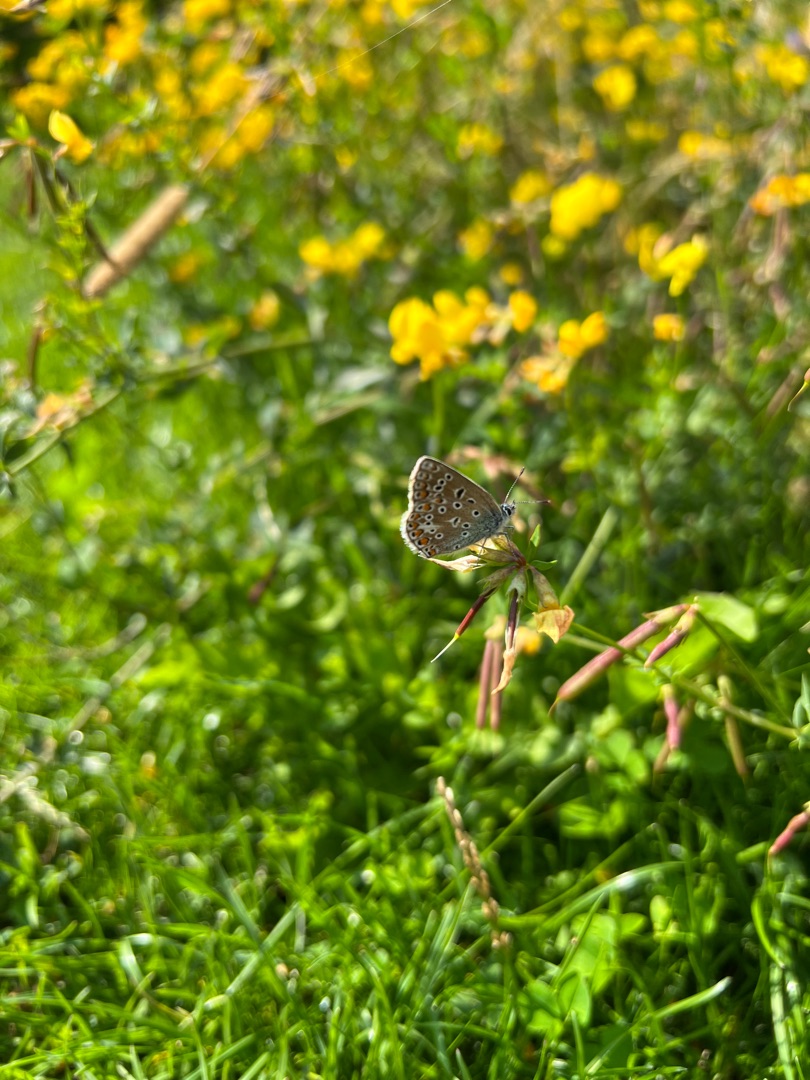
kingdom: Animalia
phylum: Arthropoda
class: Insecta
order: Lepidoptera
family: Lycaenidae
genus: Polyommatus
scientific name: Polyommatus icarus
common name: Almindelig blåfugl
